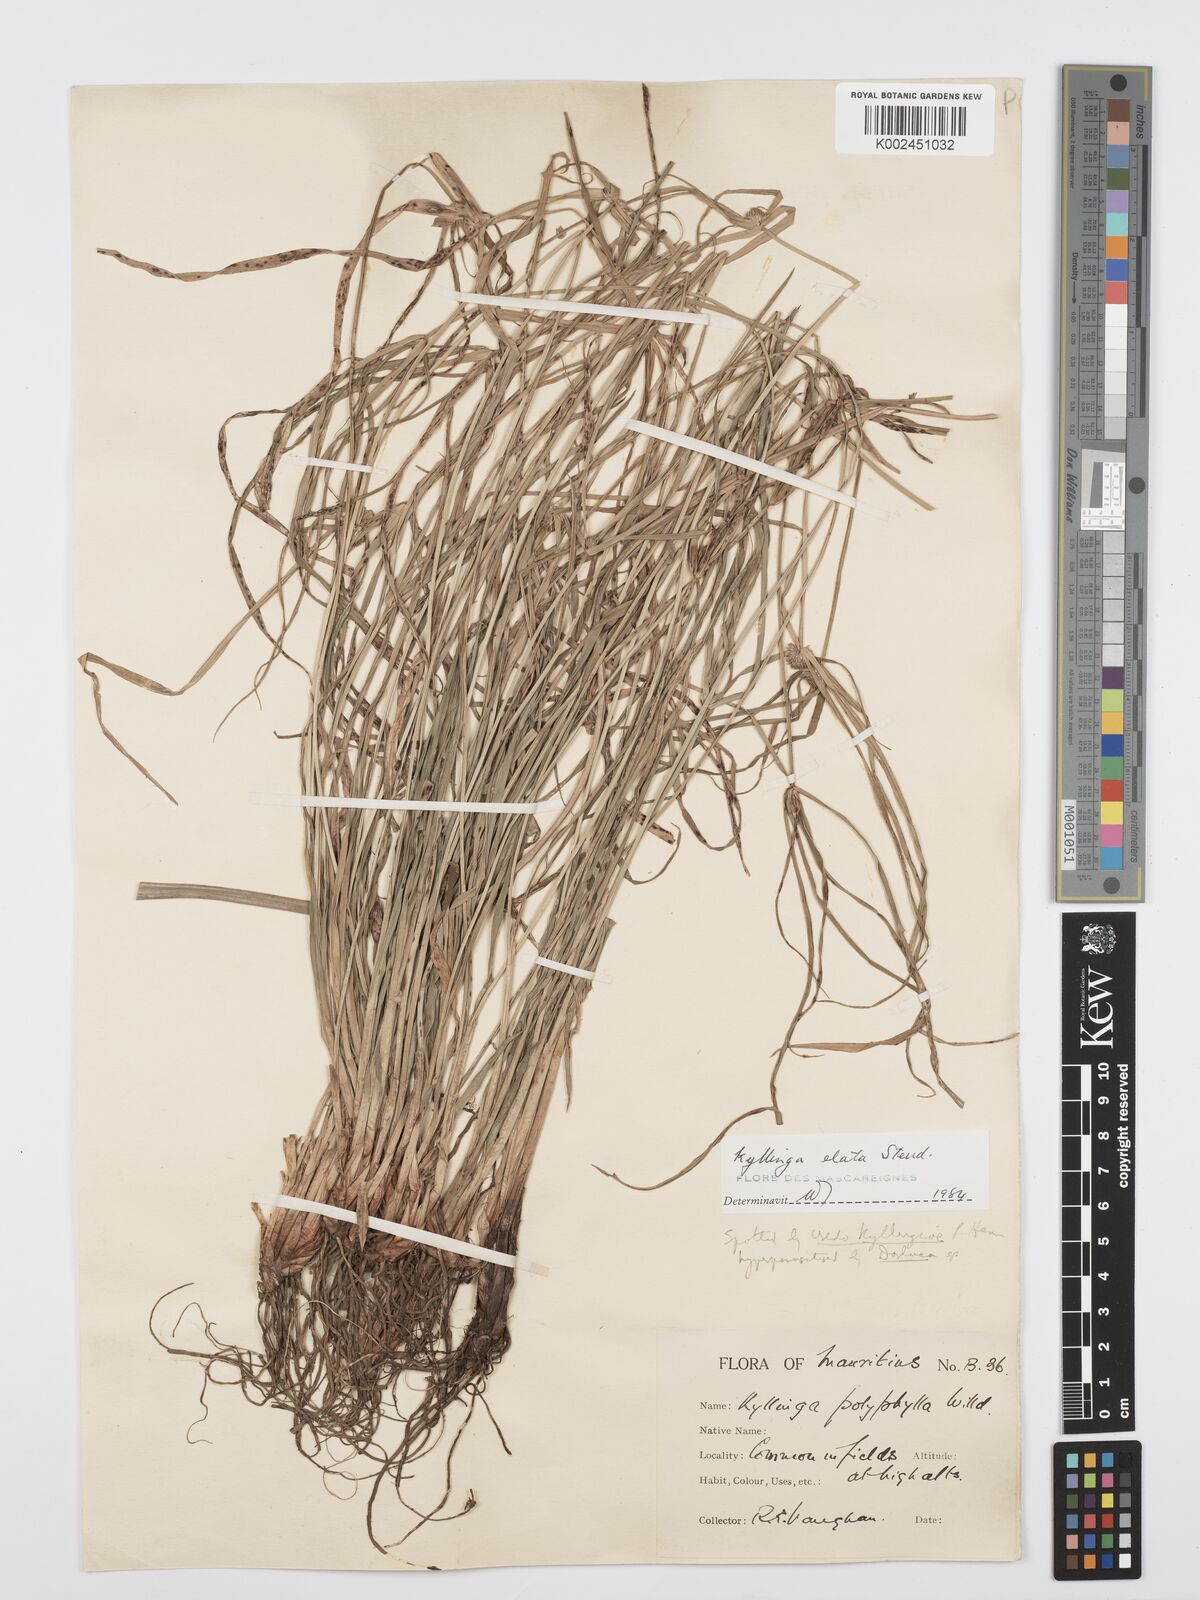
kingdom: Plantae
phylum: Tracheophyta
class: Liliopsida
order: Poales
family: Cyperaceae
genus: Cyperus
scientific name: Cyperus bulbosus
